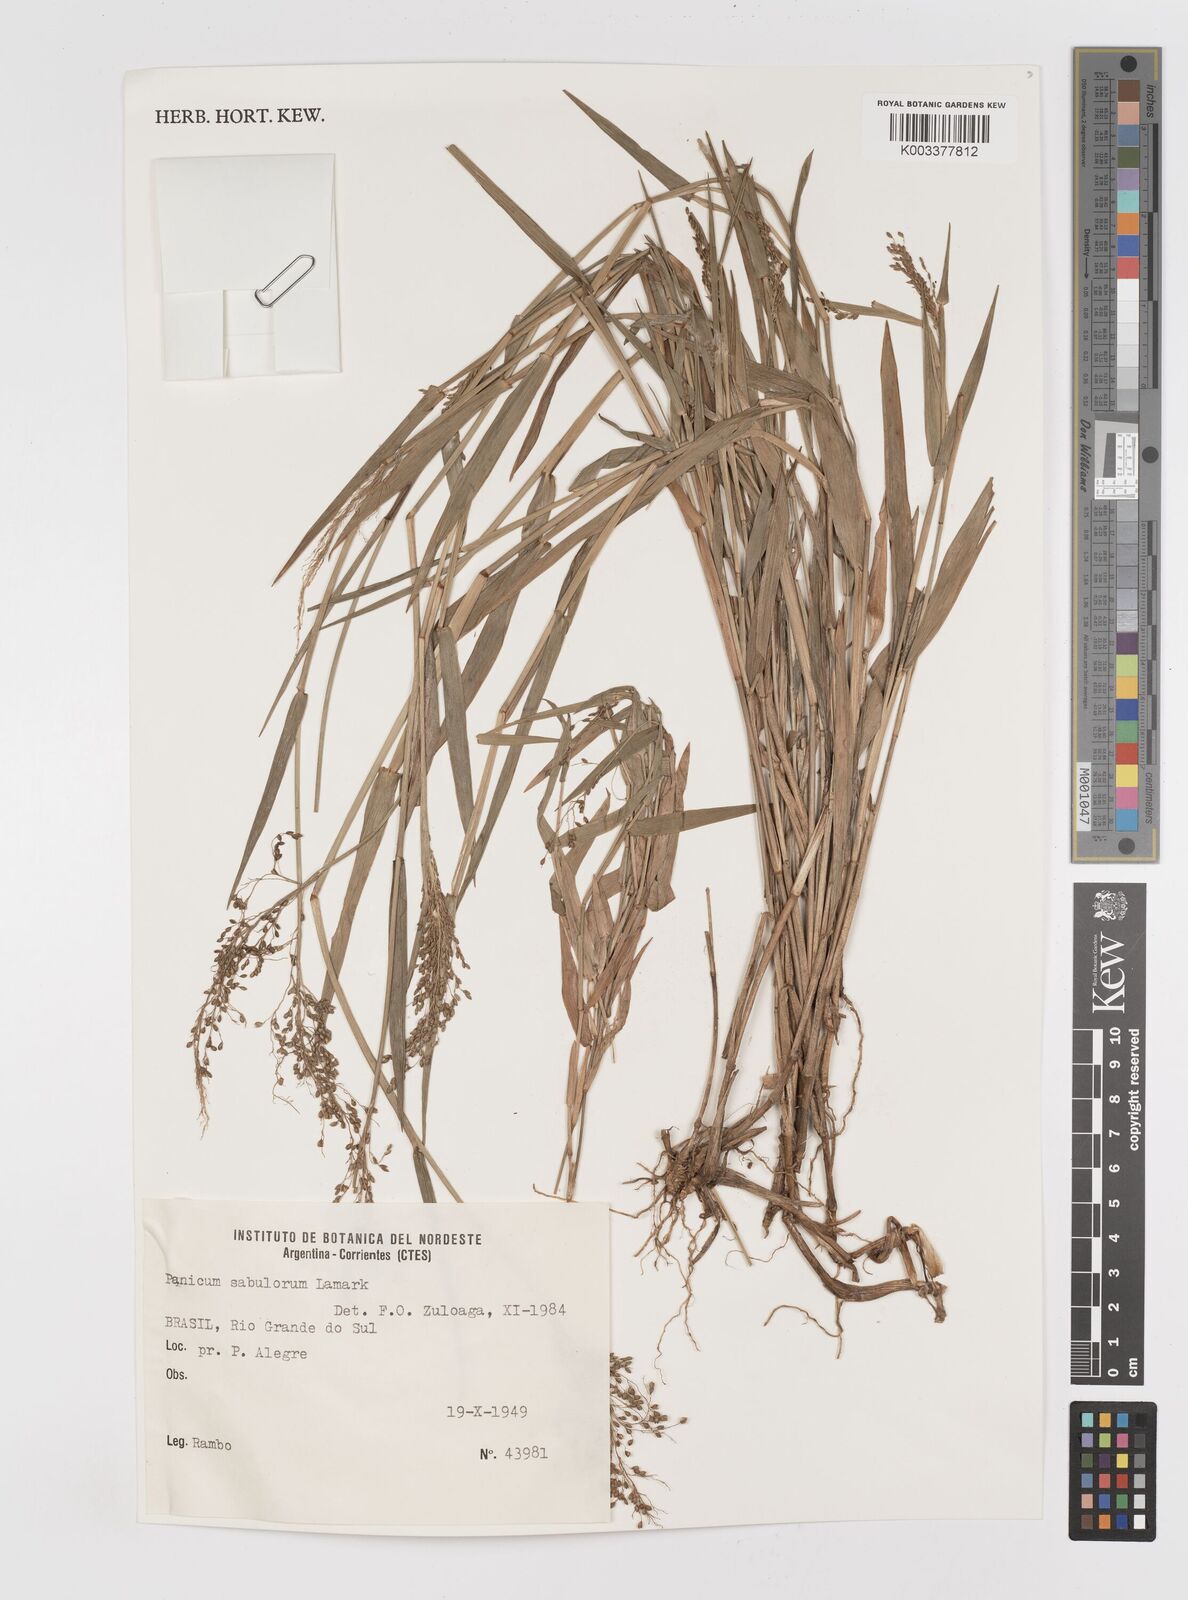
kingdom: Plantae
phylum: Tracheophyta
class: Liliopsida
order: Poales
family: Poaceae
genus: Dichanthelium
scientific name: Dichanthelium sabulorum
